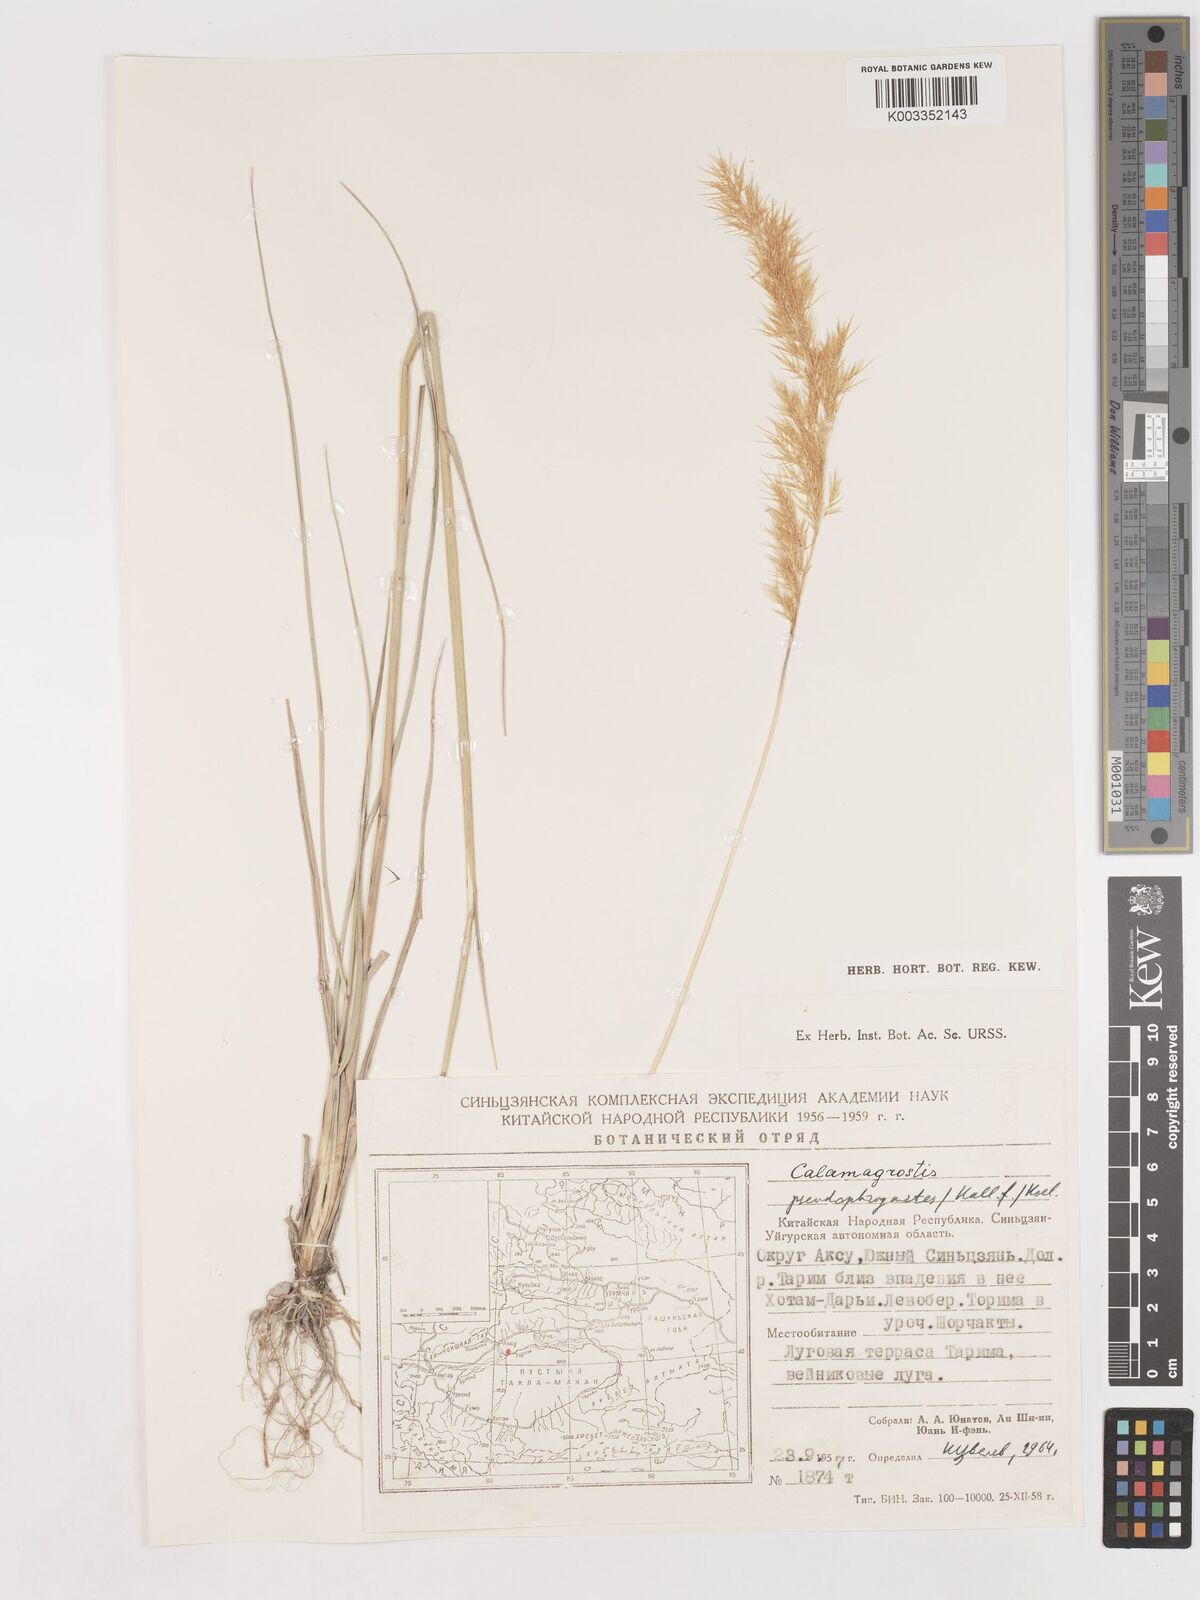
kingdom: Plantae
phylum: Tracheophyta
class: Liliopsida
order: Poales
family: Poaceae
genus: Calamagrostis
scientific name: Calamagrostis pseudophragmites
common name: Coastal small-reed
